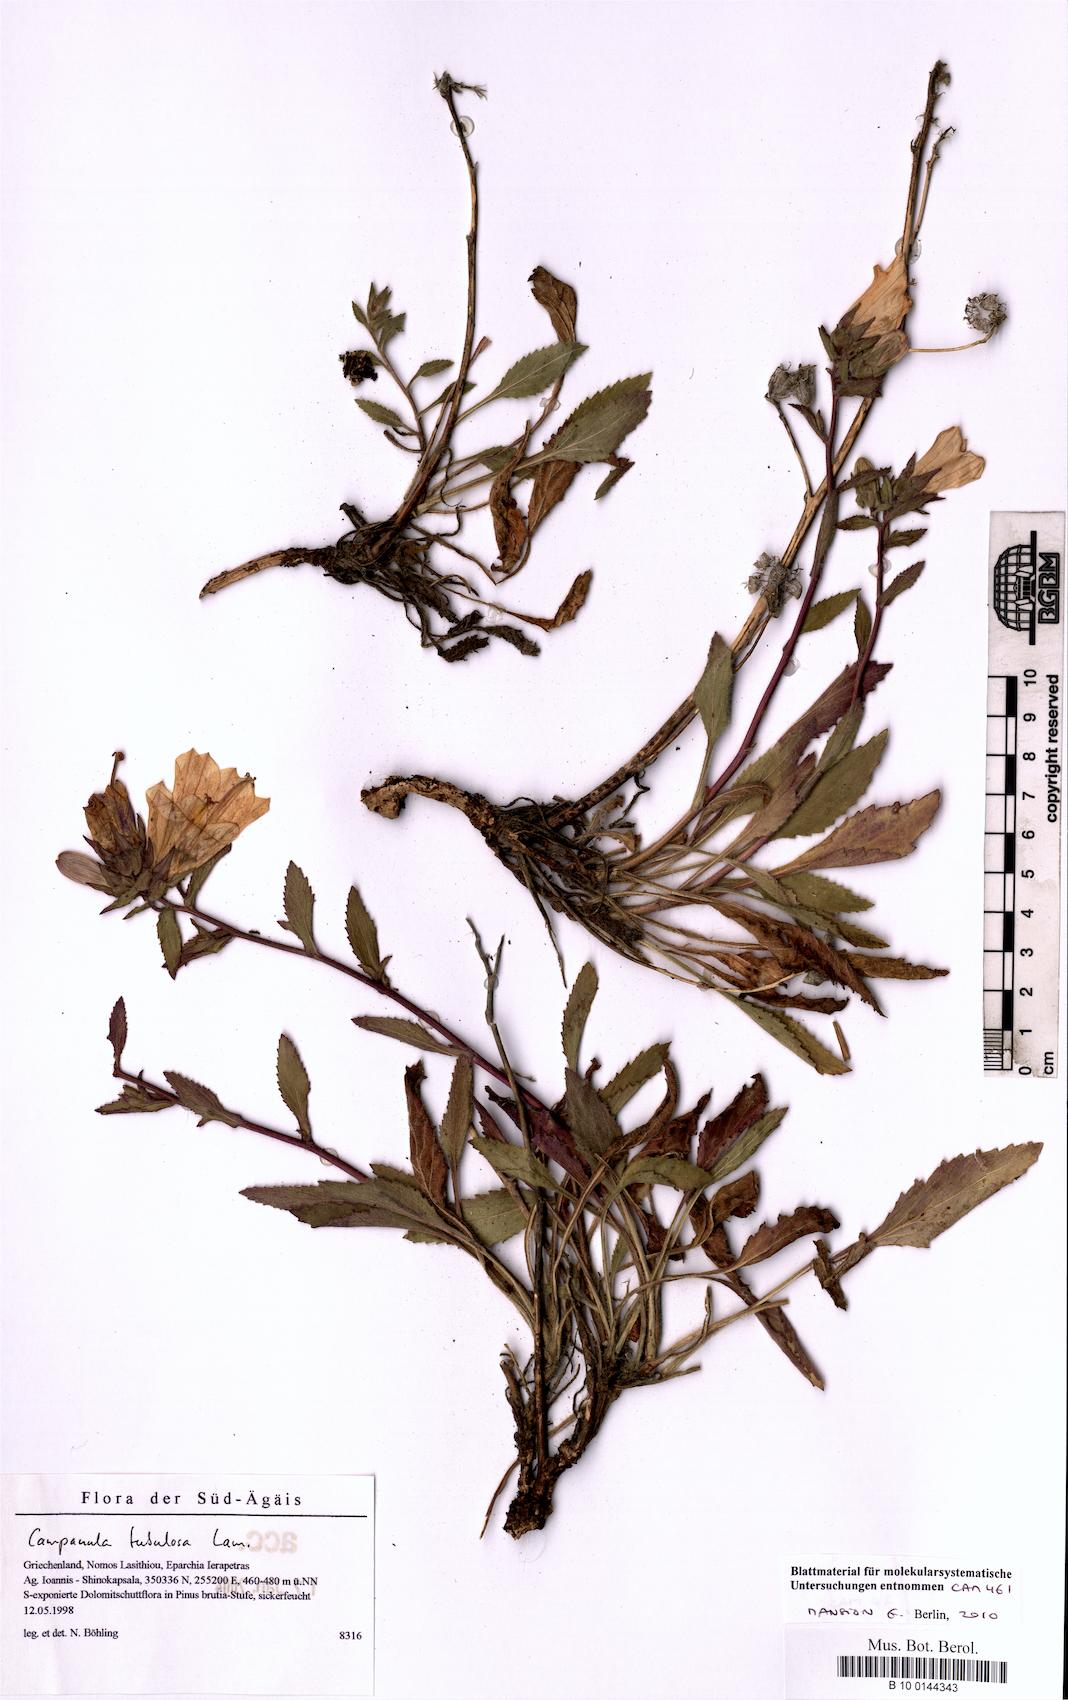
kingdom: Plantae
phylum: Tracheophyta
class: Magnoliopsida
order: Asterales
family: Campanulaceae
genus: Campanula
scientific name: Campanula tubulosa
